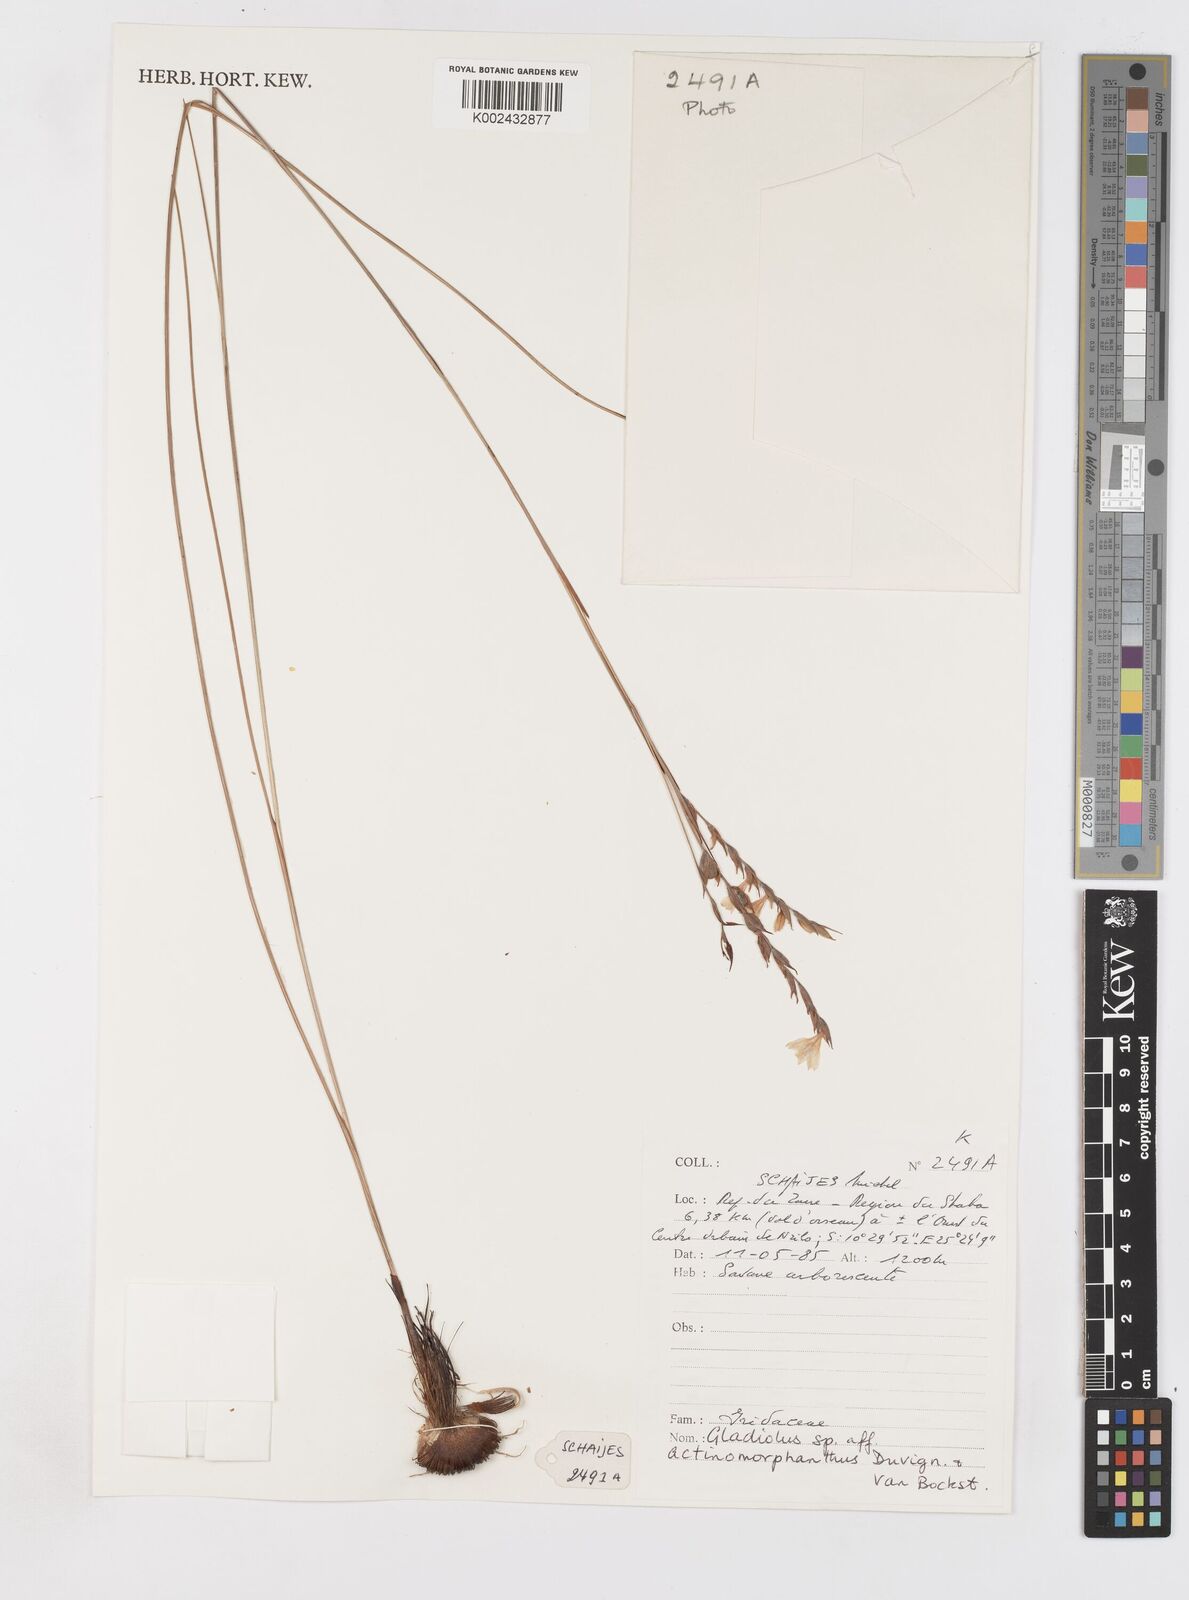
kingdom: Plantae
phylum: Tracheophyta
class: Liliopsida
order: Asparagales
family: Iridaceae
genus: Gladiolus
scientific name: Gladiolus actinomorphanthus
